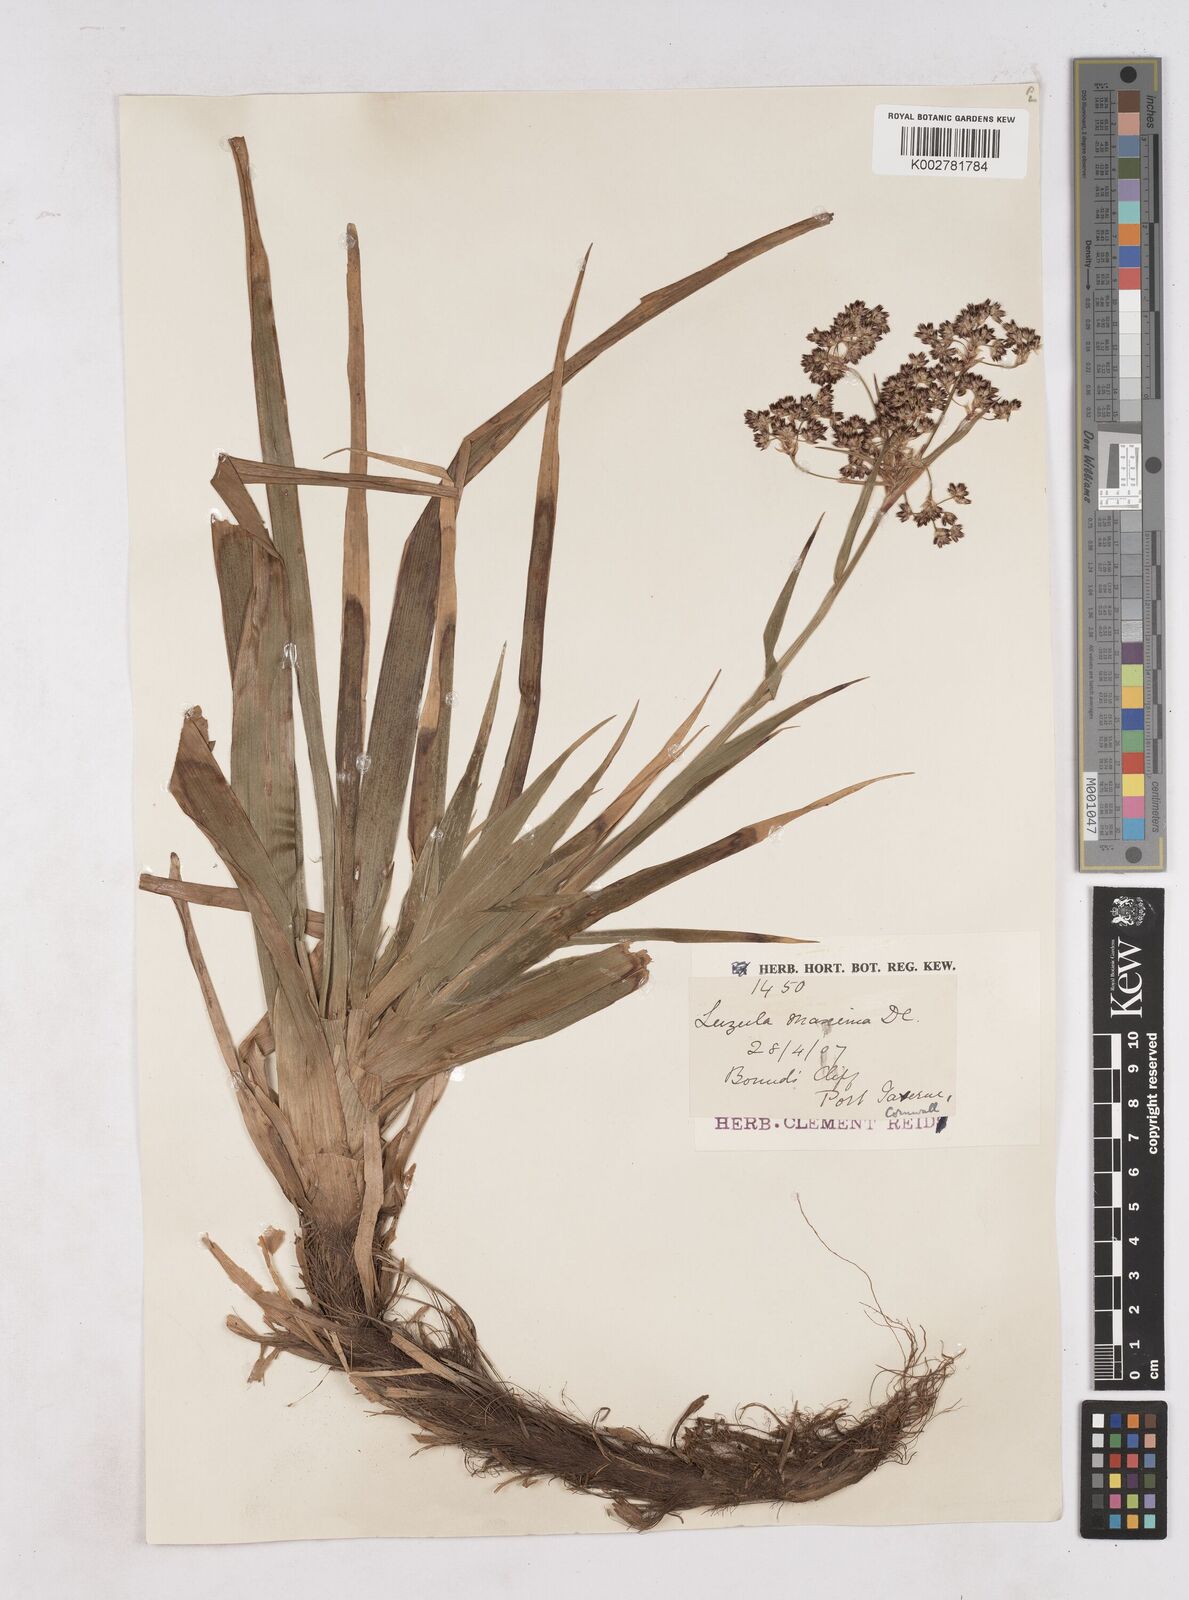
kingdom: Plantae
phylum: Tracheophyta
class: Liliopsida
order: Poales
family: Juncaceae
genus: Luzula
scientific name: Luzula sylvatica
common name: Great wood-rush
